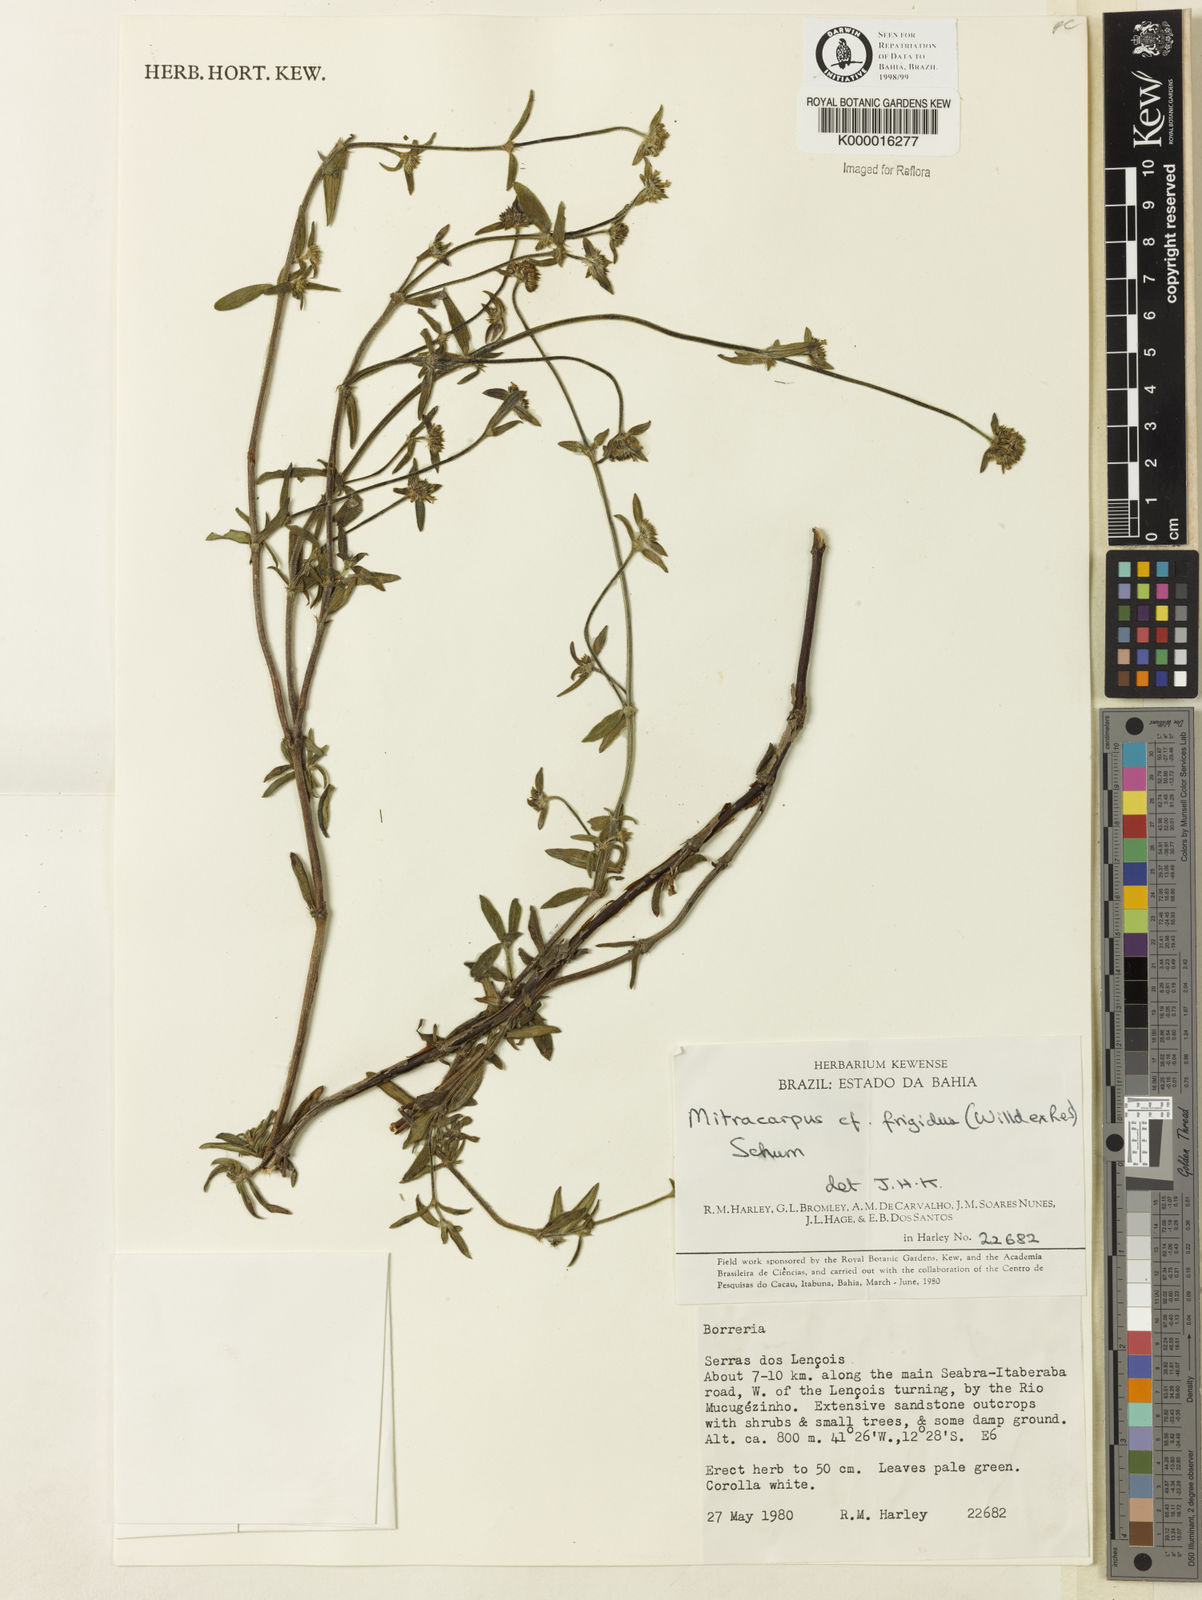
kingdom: Plantae
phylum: Tracheophyta
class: Magnoliopsida
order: Gentianales
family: Rubiaceae
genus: Mitracarpus
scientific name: Mitracarpus frigidus
